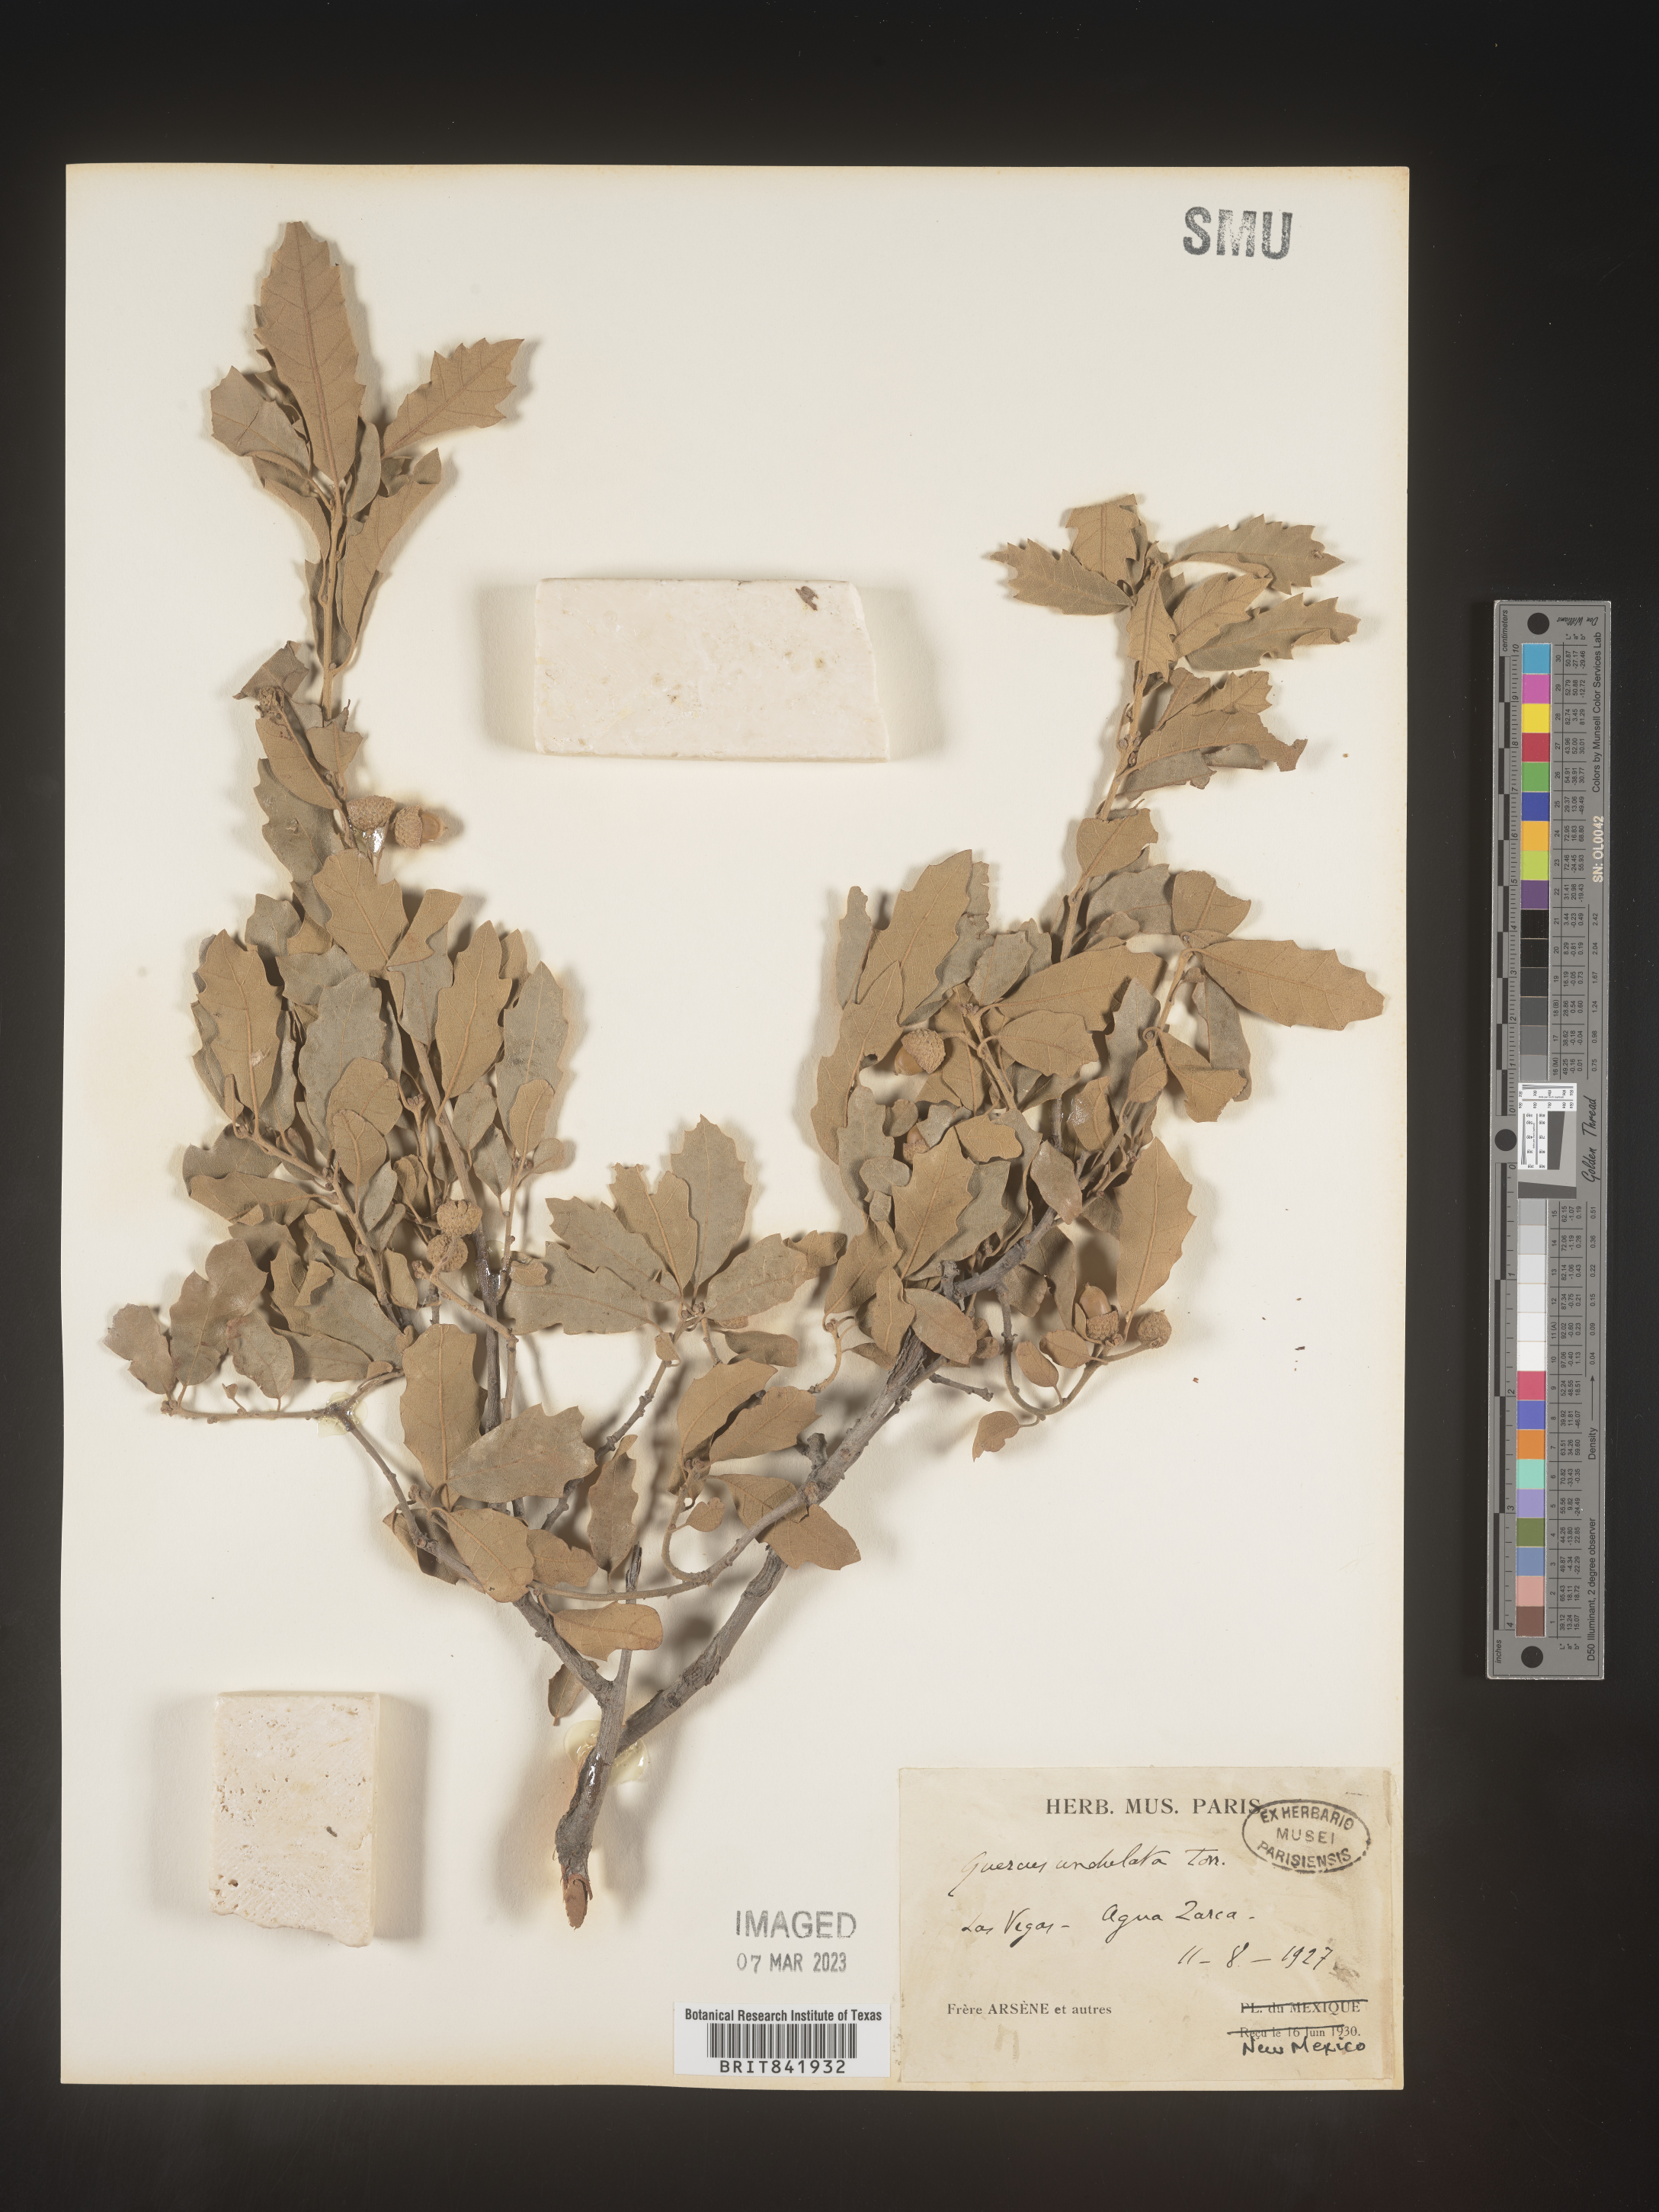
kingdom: Plantae
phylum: Tracheophyta
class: Magnoliopsida
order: Fagales
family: Fagaceae
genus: Quercus
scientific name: Quercus undulata
